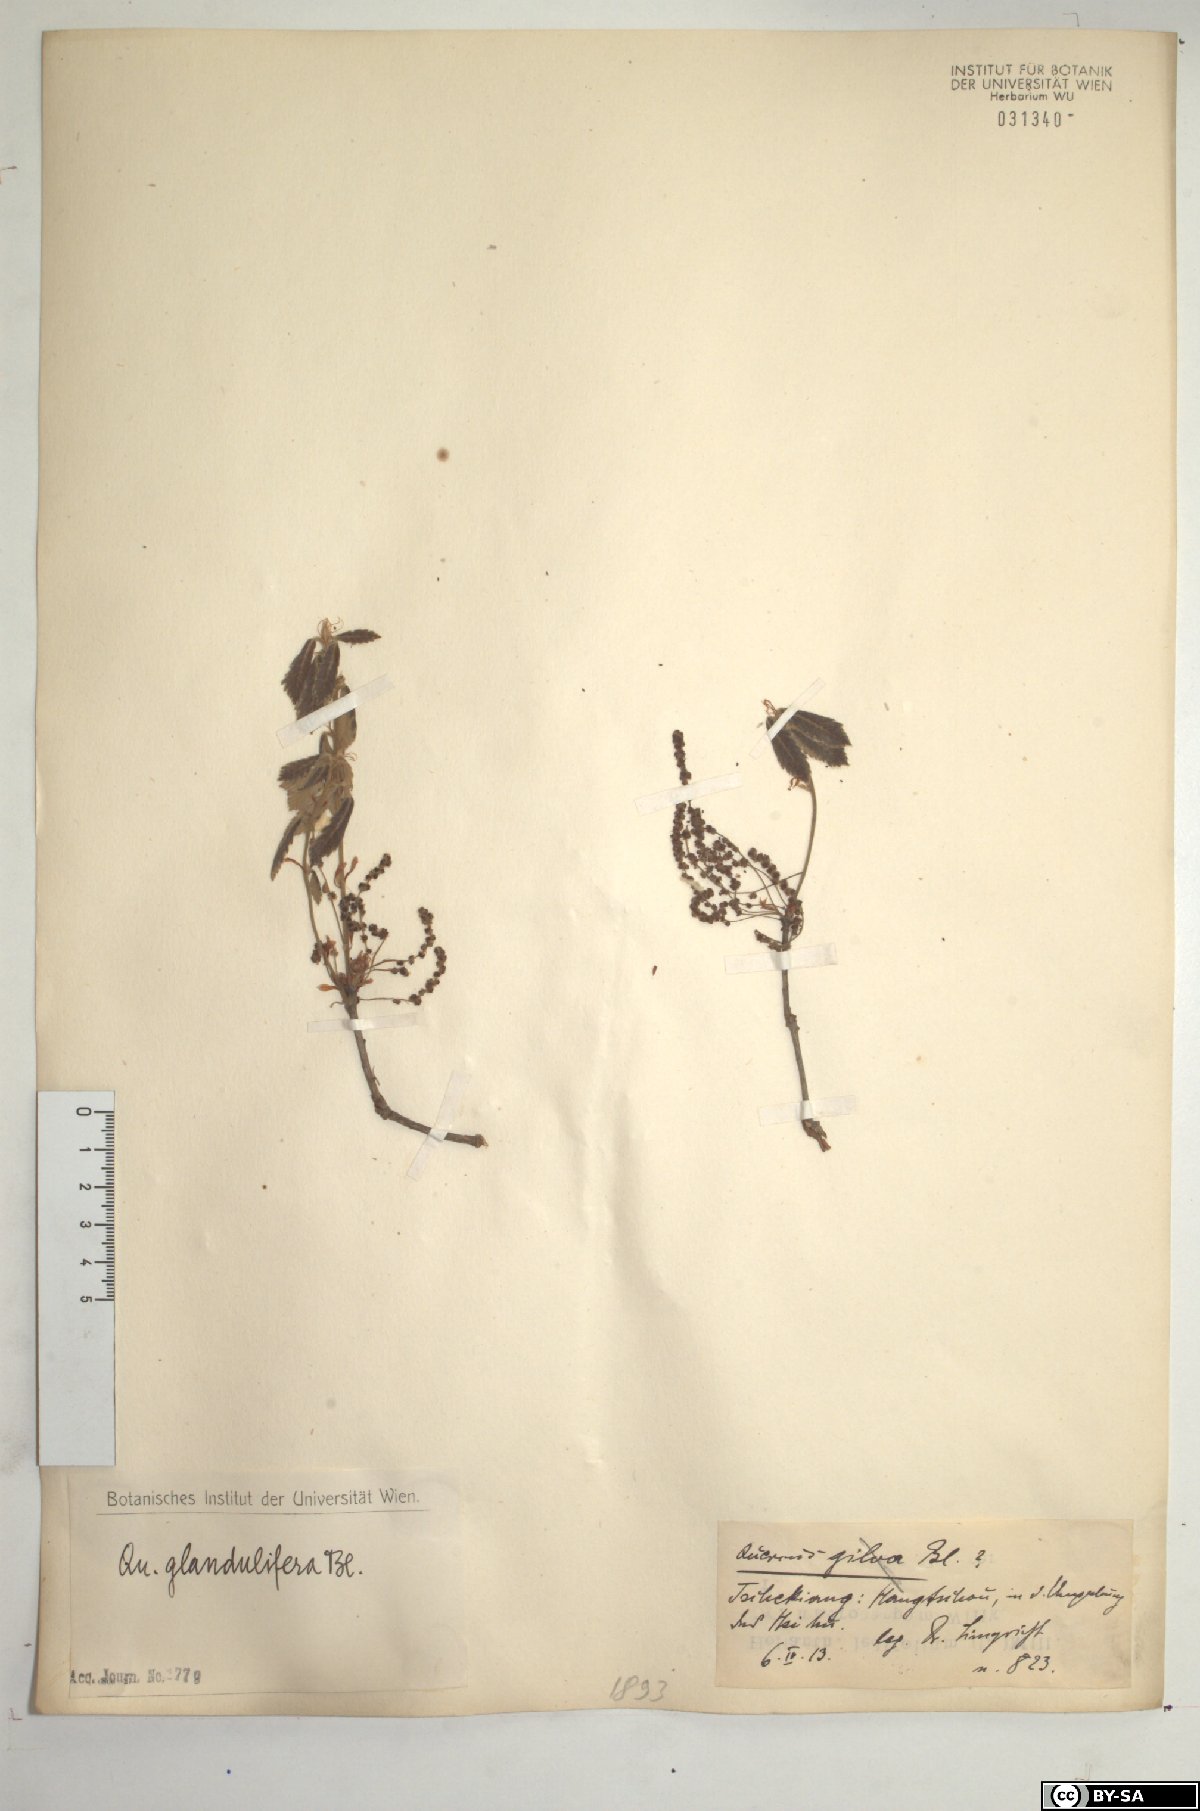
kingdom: Plantae
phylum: Tracheophyta
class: Magnoliopsida
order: Fagales
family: Fagaceae
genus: Quercus
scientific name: Quercus serrata
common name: Bao li
